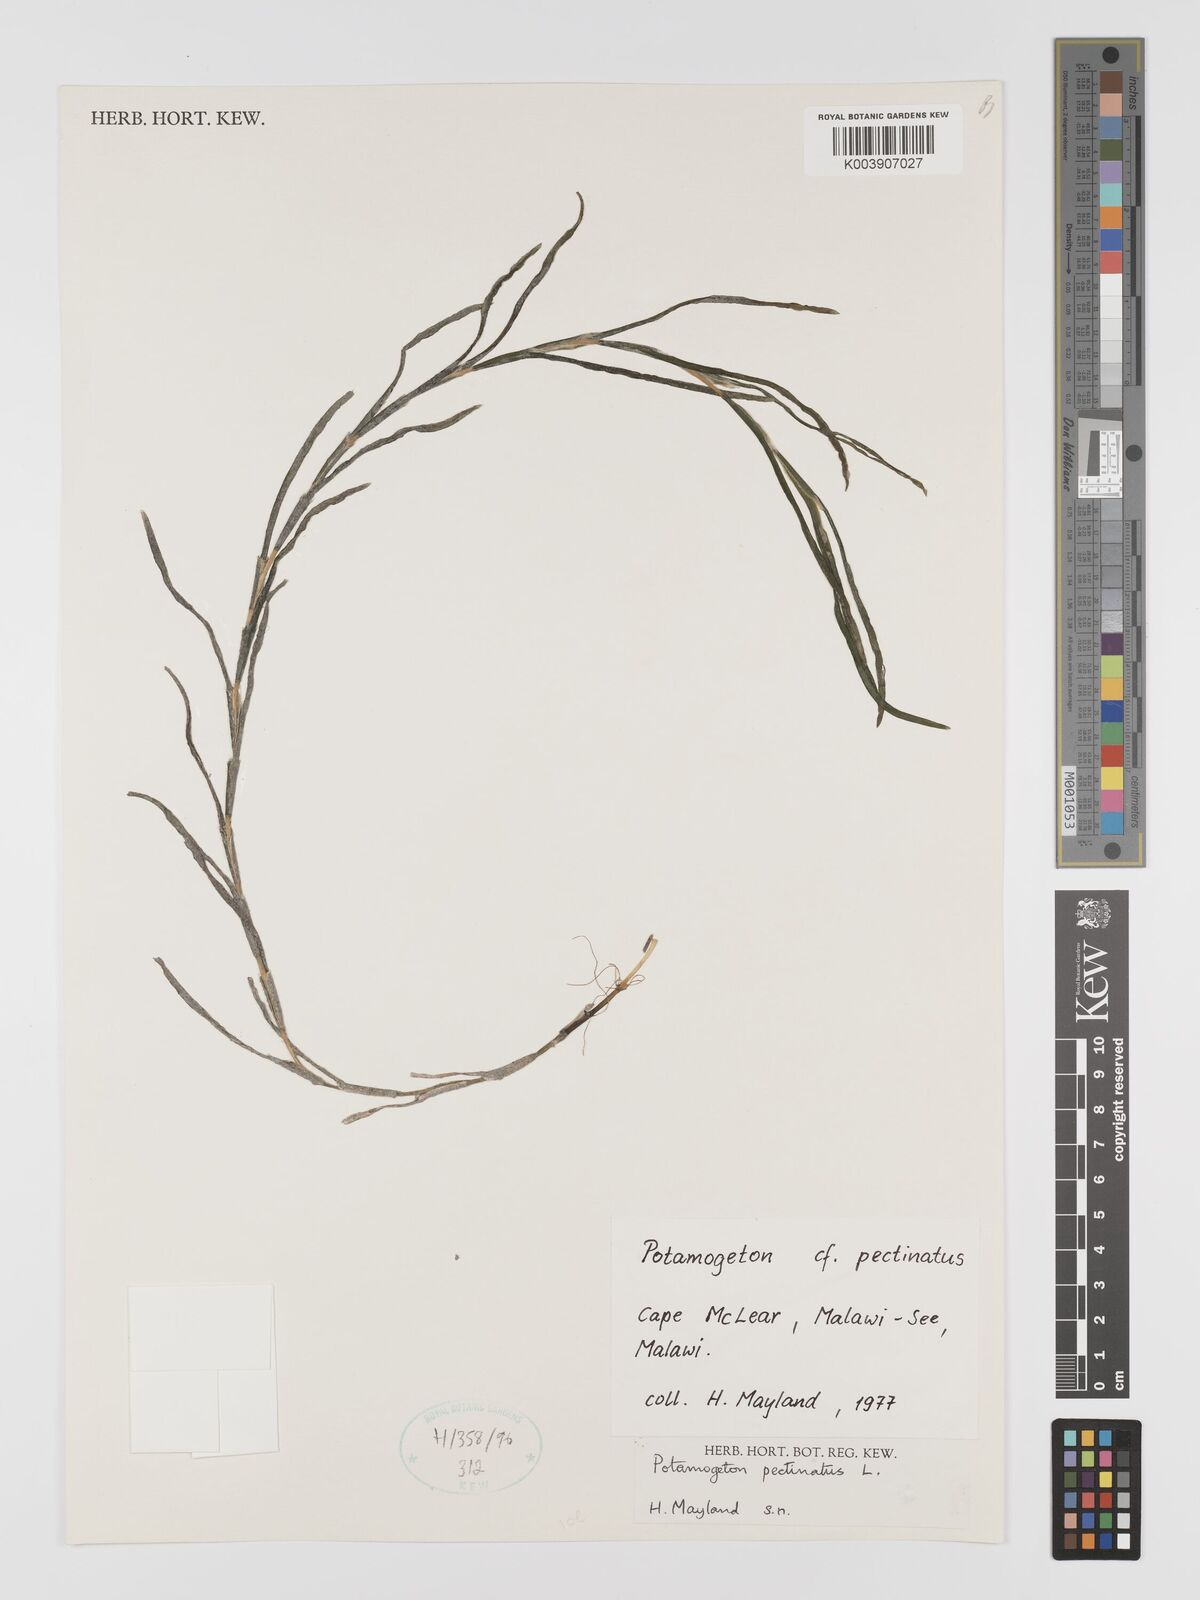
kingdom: Plantae
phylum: Tracheophyta
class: Liliopsida
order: Alismatales
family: Potamogetonaceae
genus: Stuckenia
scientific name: Stuckenia pectinata
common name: Sago pondweed
